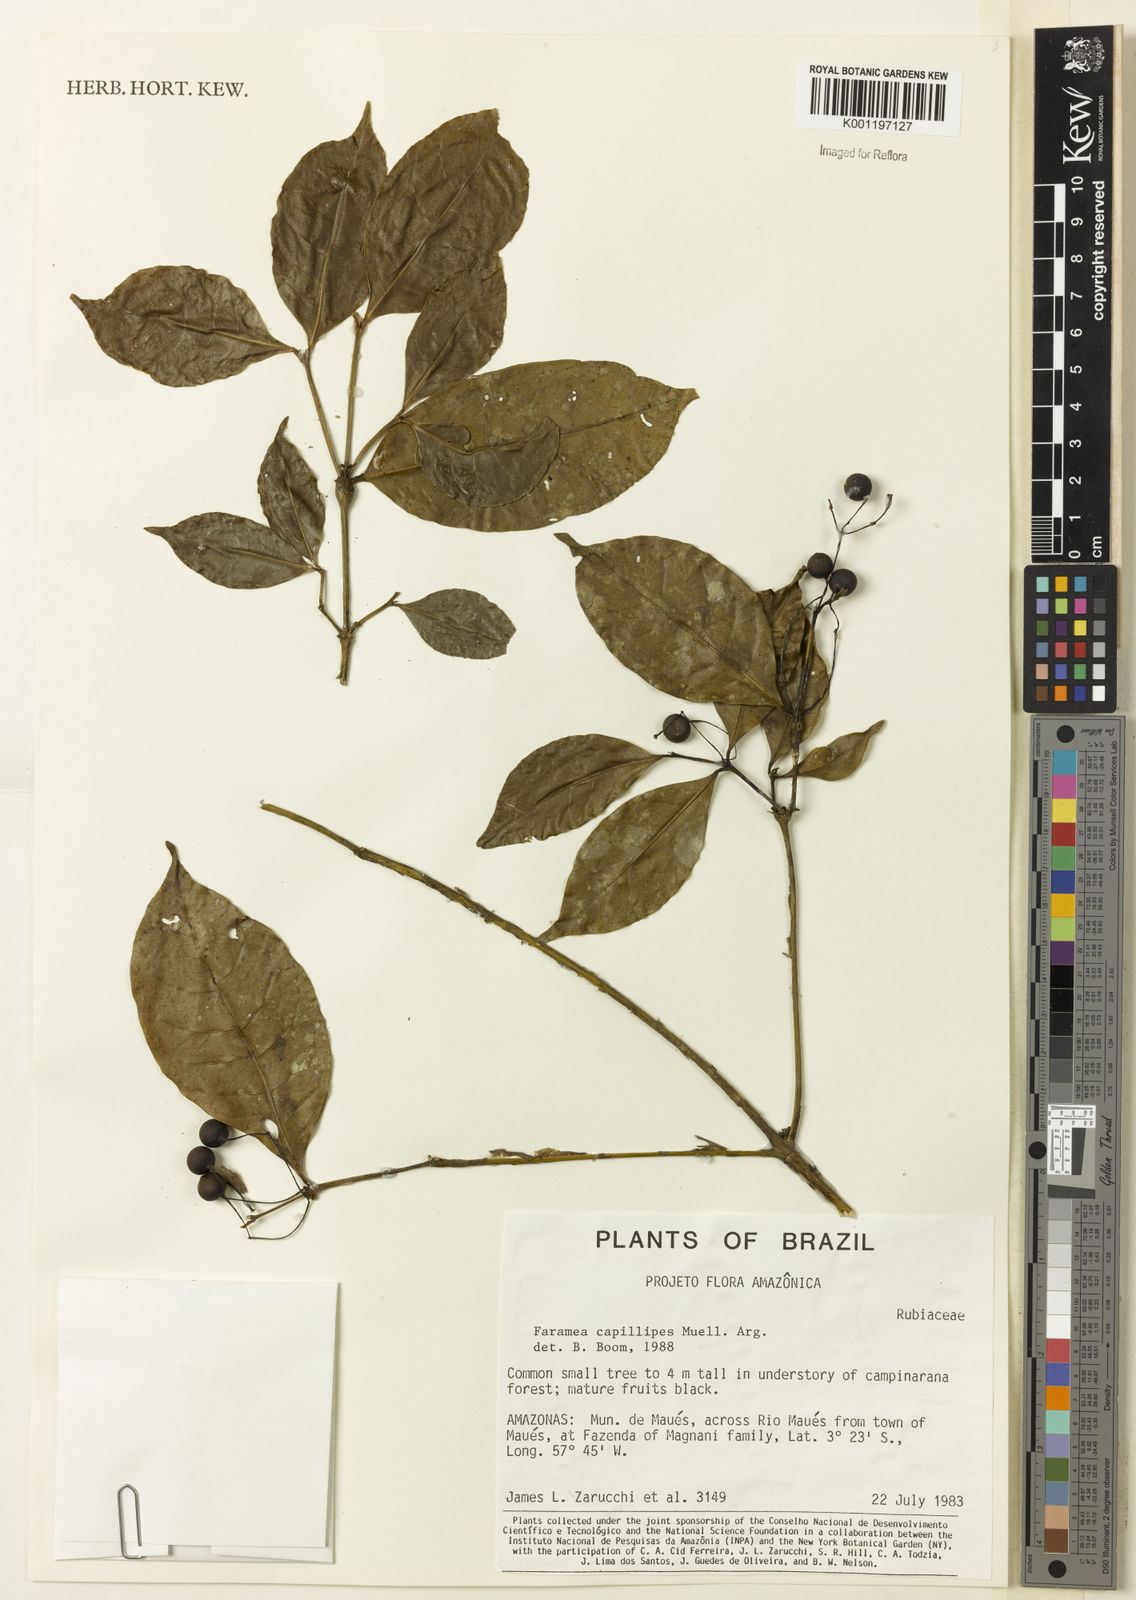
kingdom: Plantae
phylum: Tracheophyta
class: Magnoliopsida
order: Gentianales
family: Rubiaceae
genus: Faramea
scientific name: Faramea
